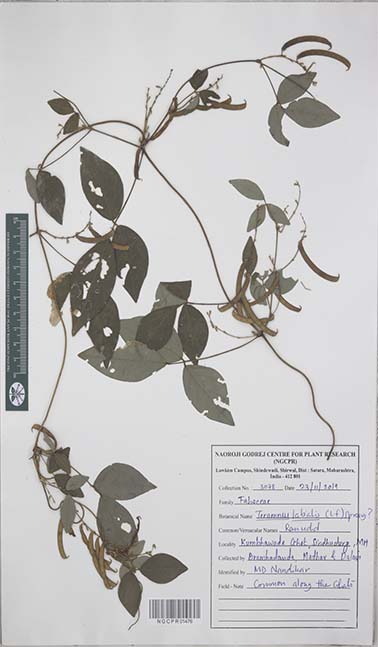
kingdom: Plantae
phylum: Tracheophyta
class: Magnoliopsida
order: Fabales
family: Fabaceae
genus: Teramnus
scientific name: Teramnus labialis
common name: Blue wiss
